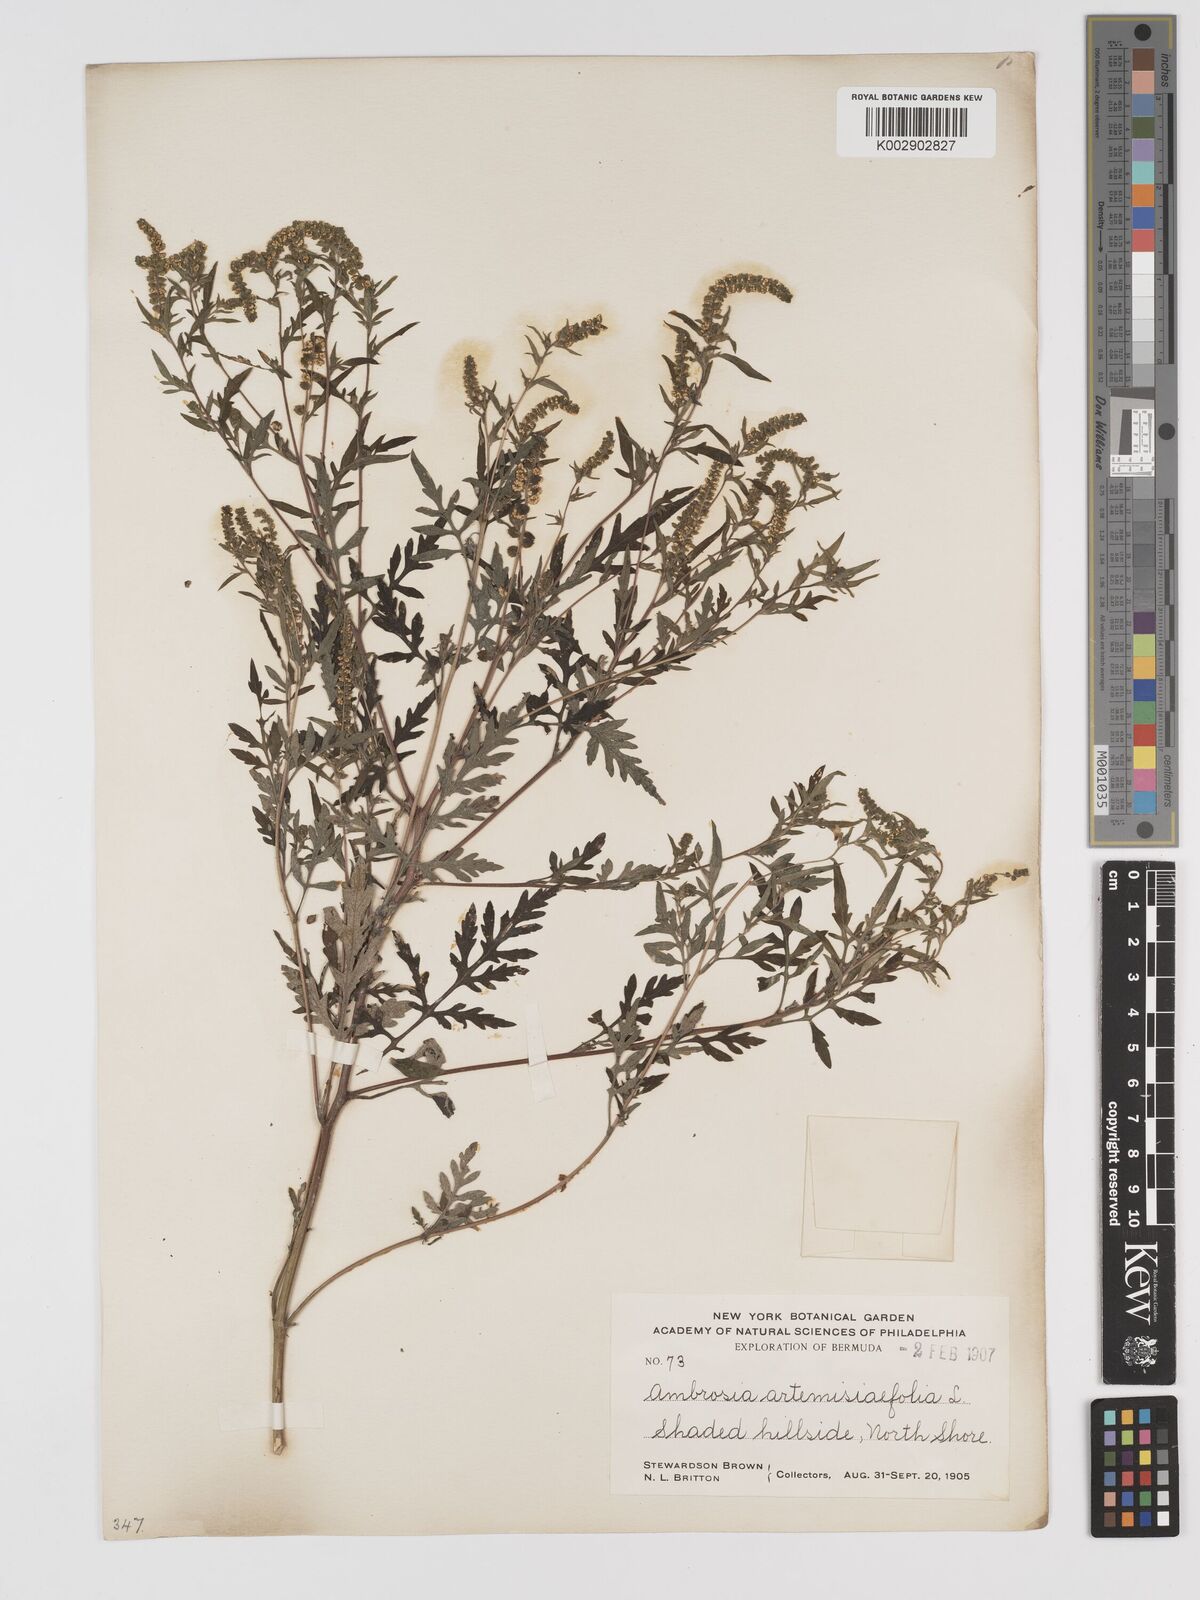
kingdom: Plantae
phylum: Tracheophyta
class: Magnoliopsida
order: Asterales
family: Asteraceae
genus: Ambrosia
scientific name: Ambrosia artemisiifolia
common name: Annual ragweed
